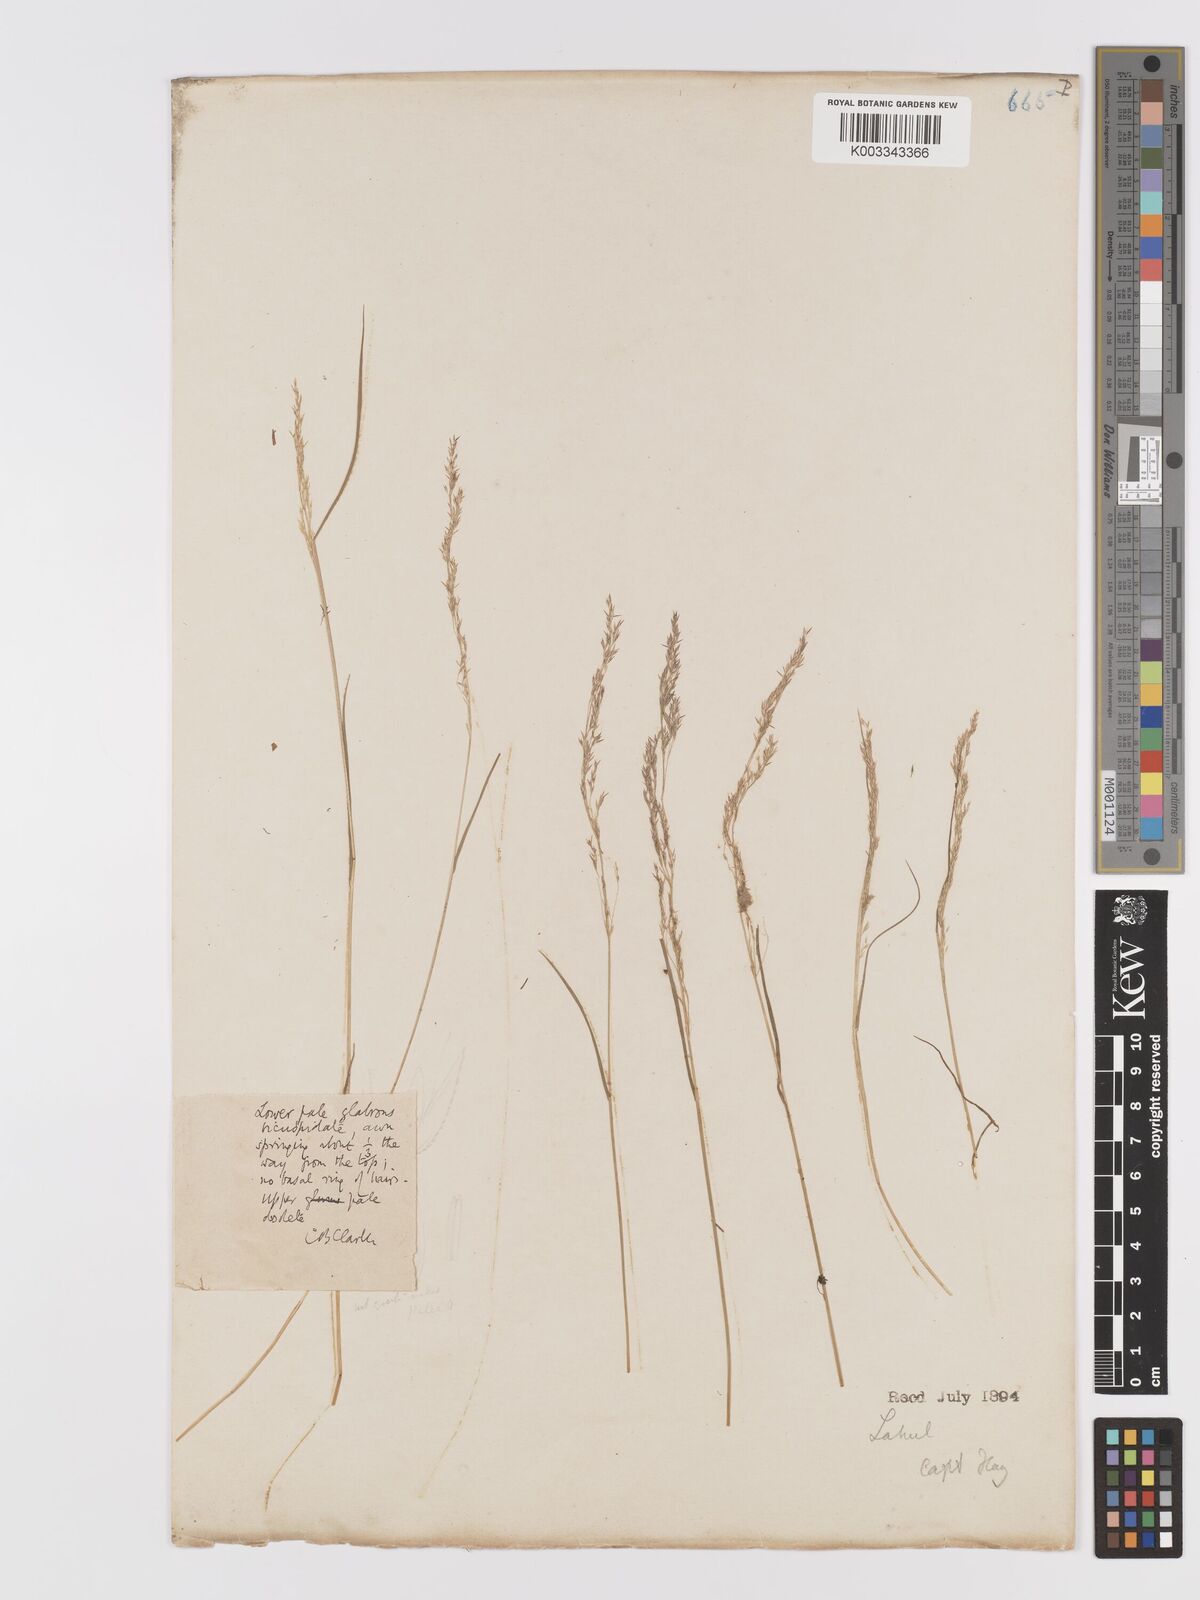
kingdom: Plantae
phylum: Tracheophyta
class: Liliopsida
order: Poales
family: Poaceae
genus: Agrostis
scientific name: Agrostis
